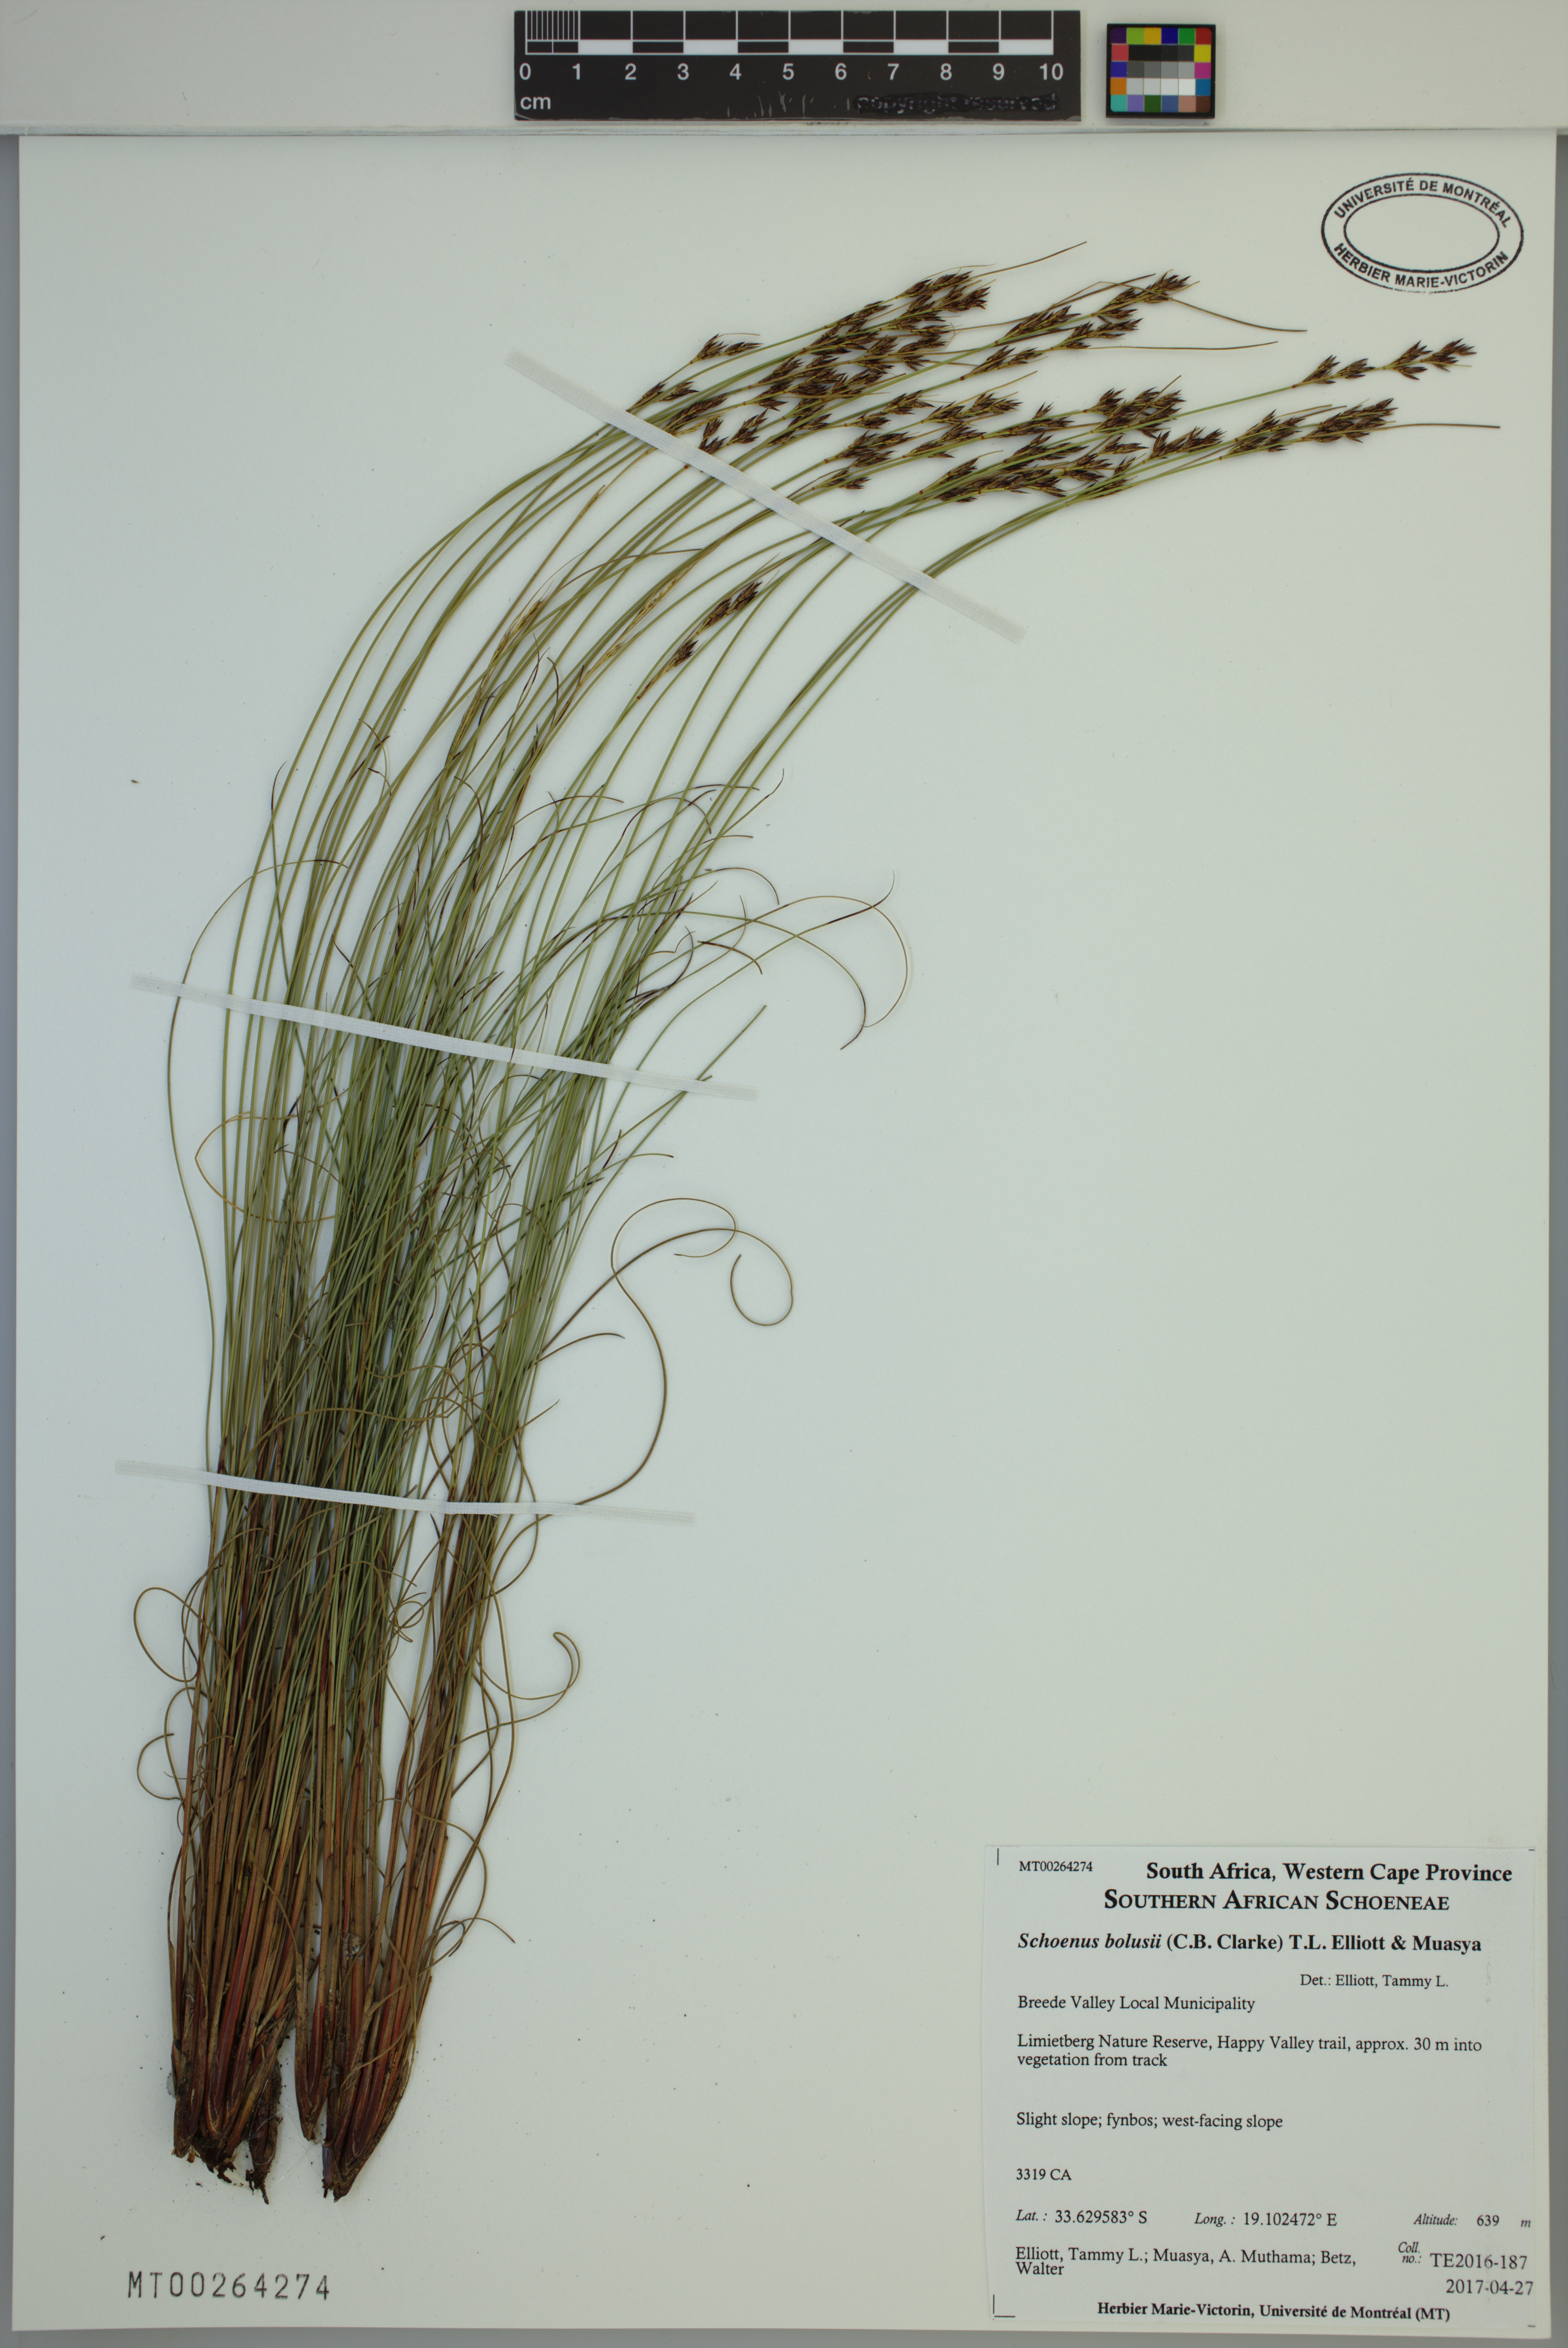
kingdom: Plantae
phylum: Tracheophyta
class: Liliopsida
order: Poales
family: Cyperaceae
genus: Schoenus
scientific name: Schoenus bolusii
